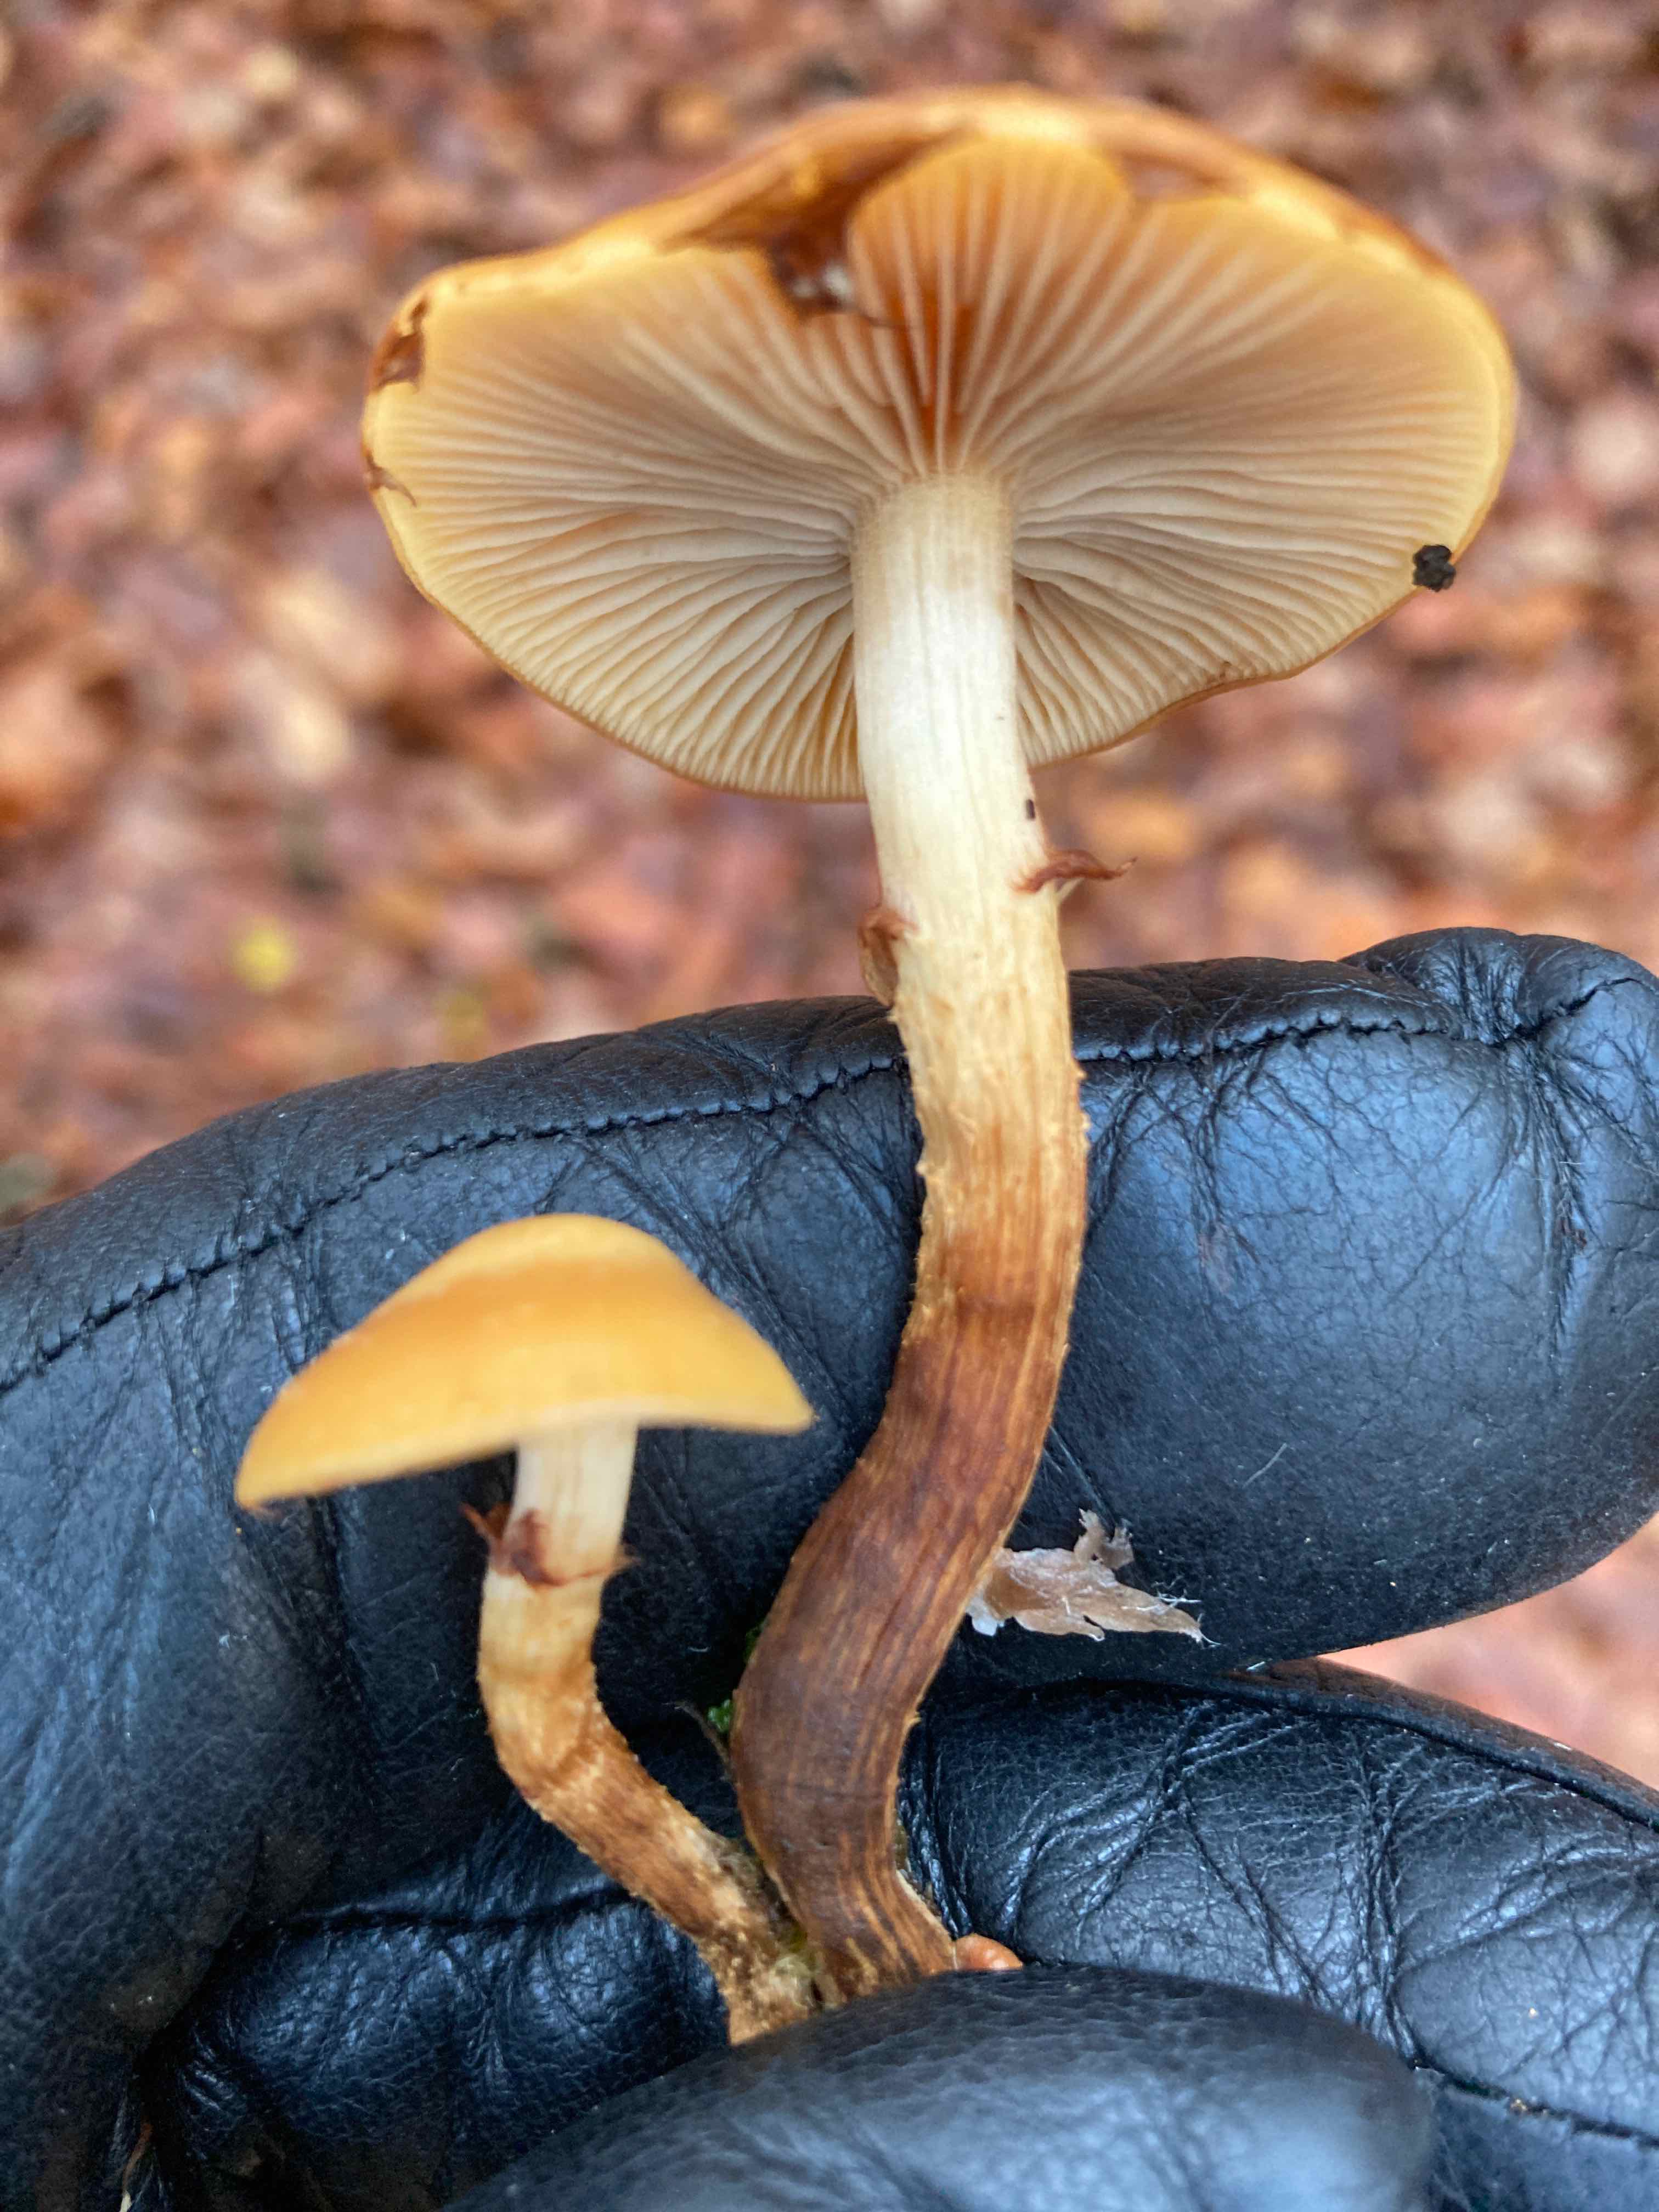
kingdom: Fungi
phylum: Basidiomycota
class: Agaricomycetes
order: Agaricales
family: Strophariaceae
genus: Kuehneromyces
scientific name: Kuehneromyces mutabilis
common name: foranderlig skælhat
